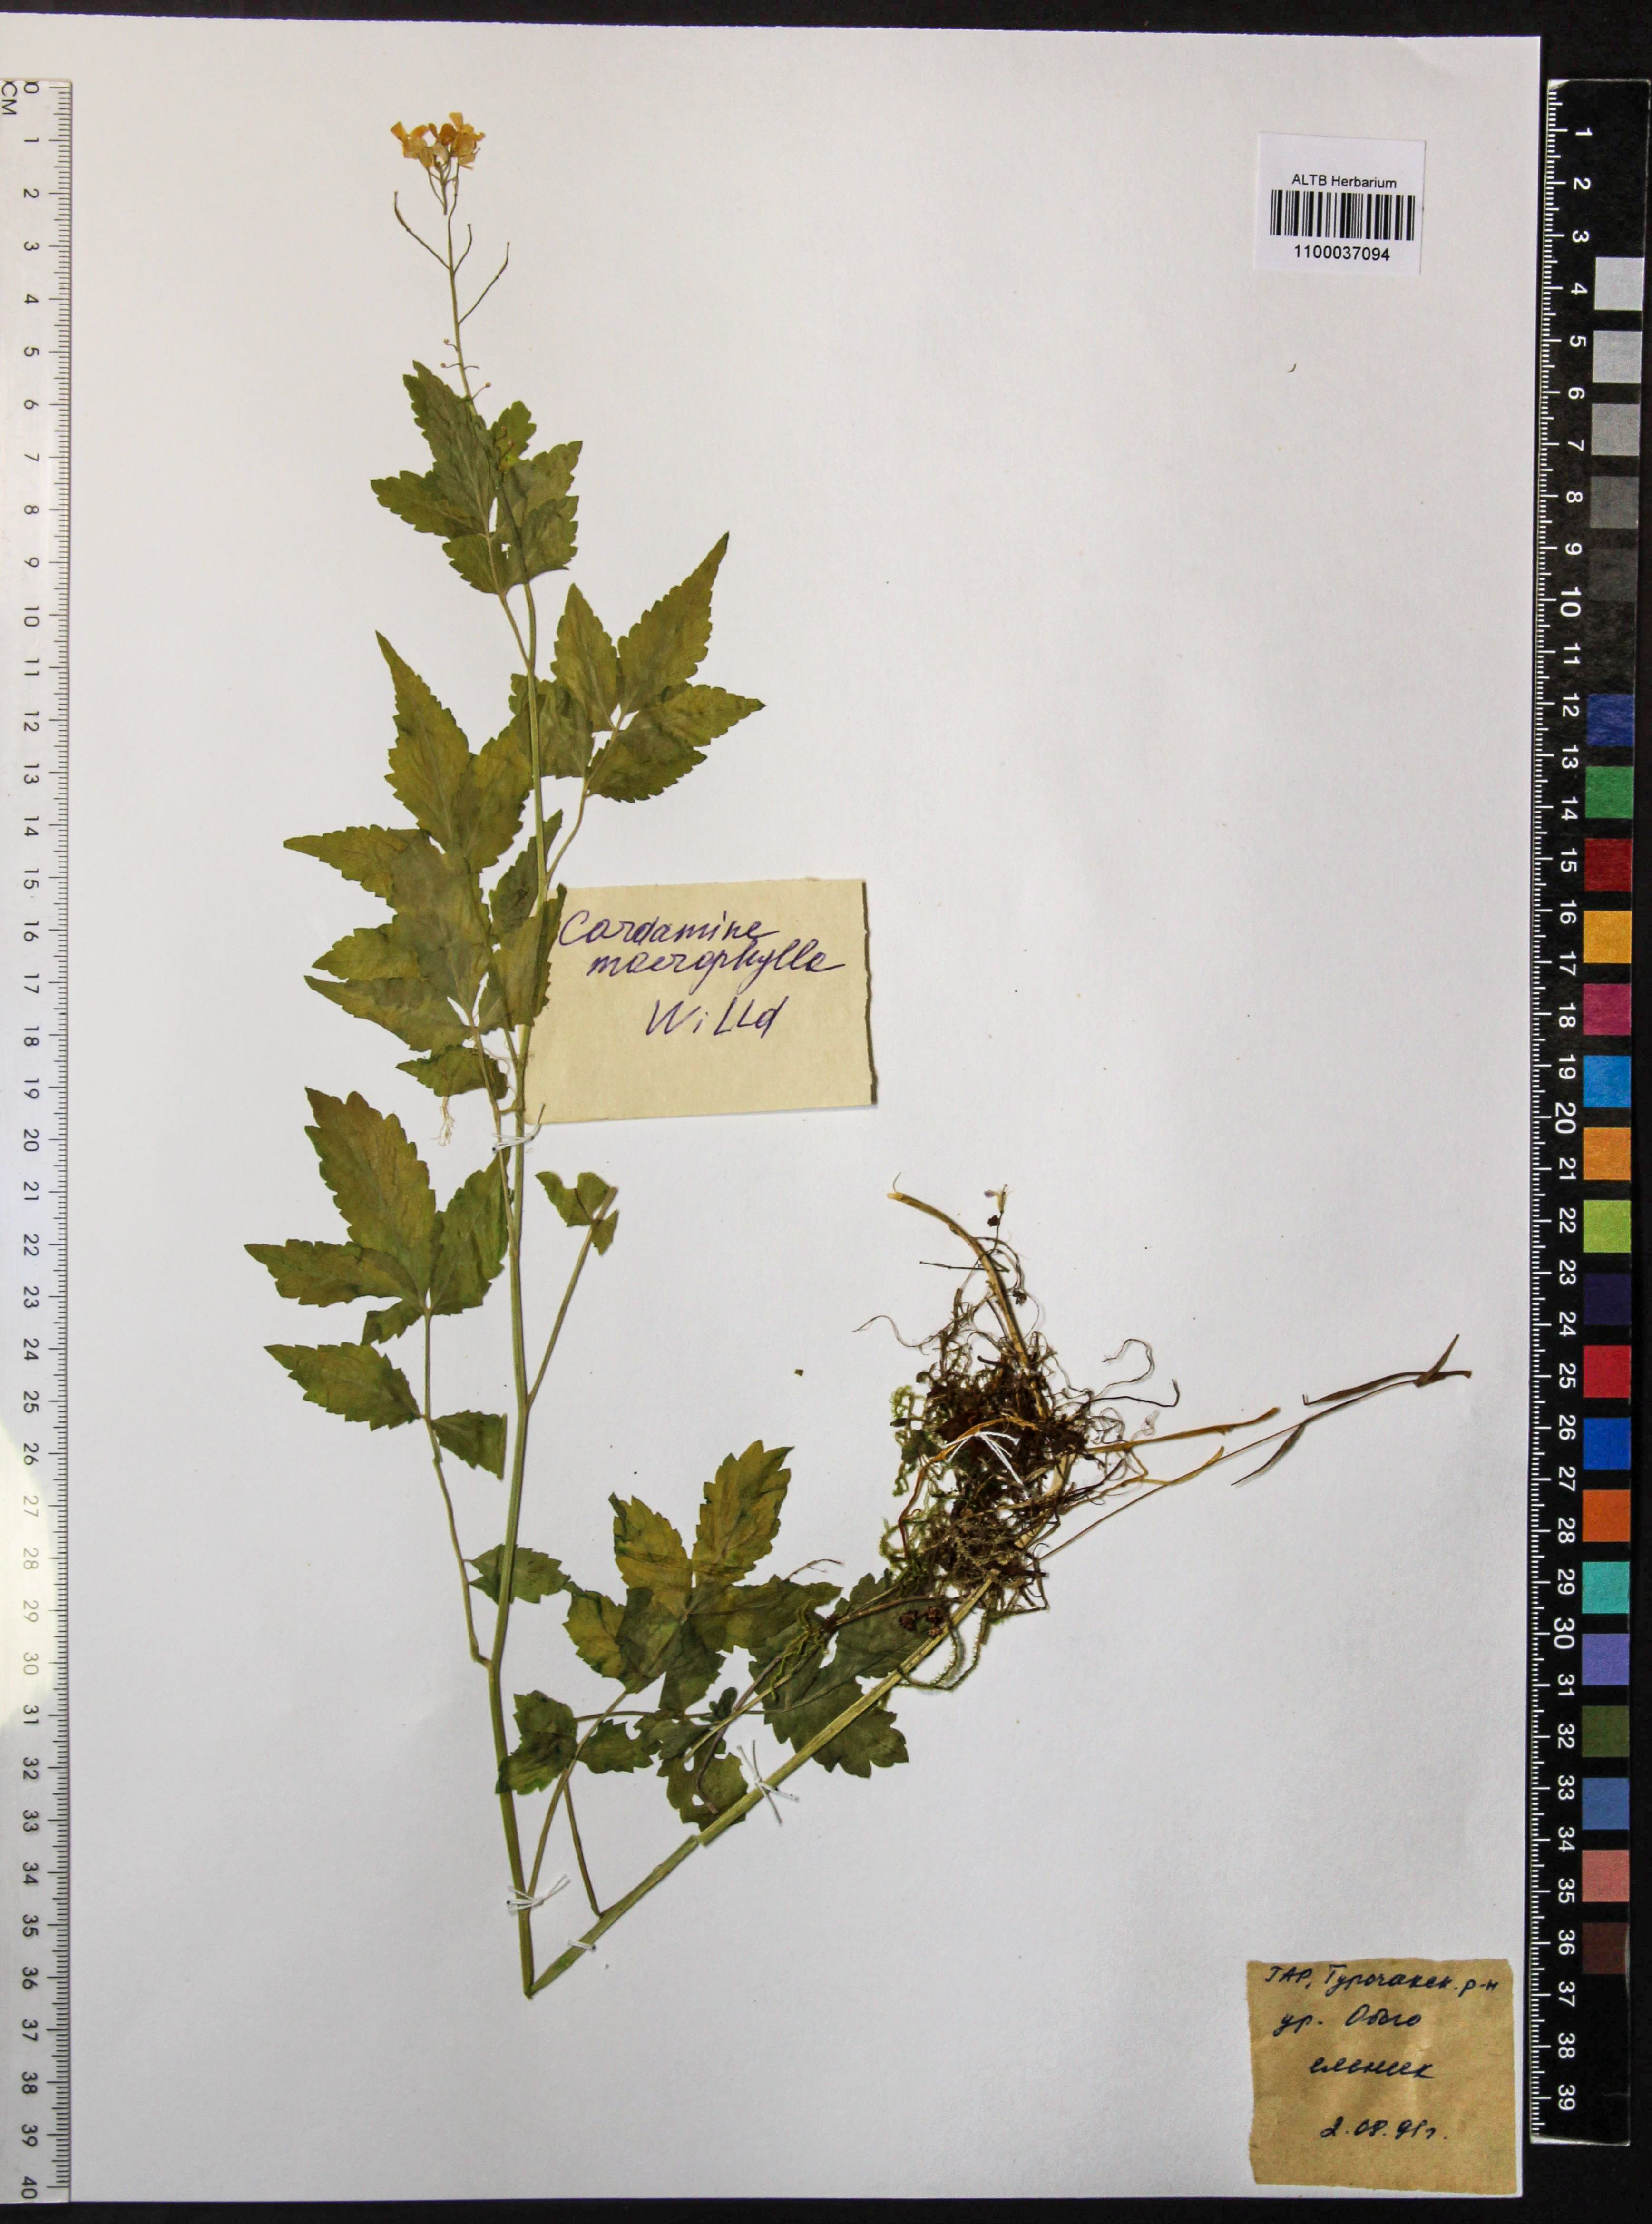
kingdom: Plantae
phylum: Tracheophyta
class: Magnoliopsida
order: Brassicales
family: Brassicaceae
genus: Cardamine
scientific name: Cardamine macrophylla
